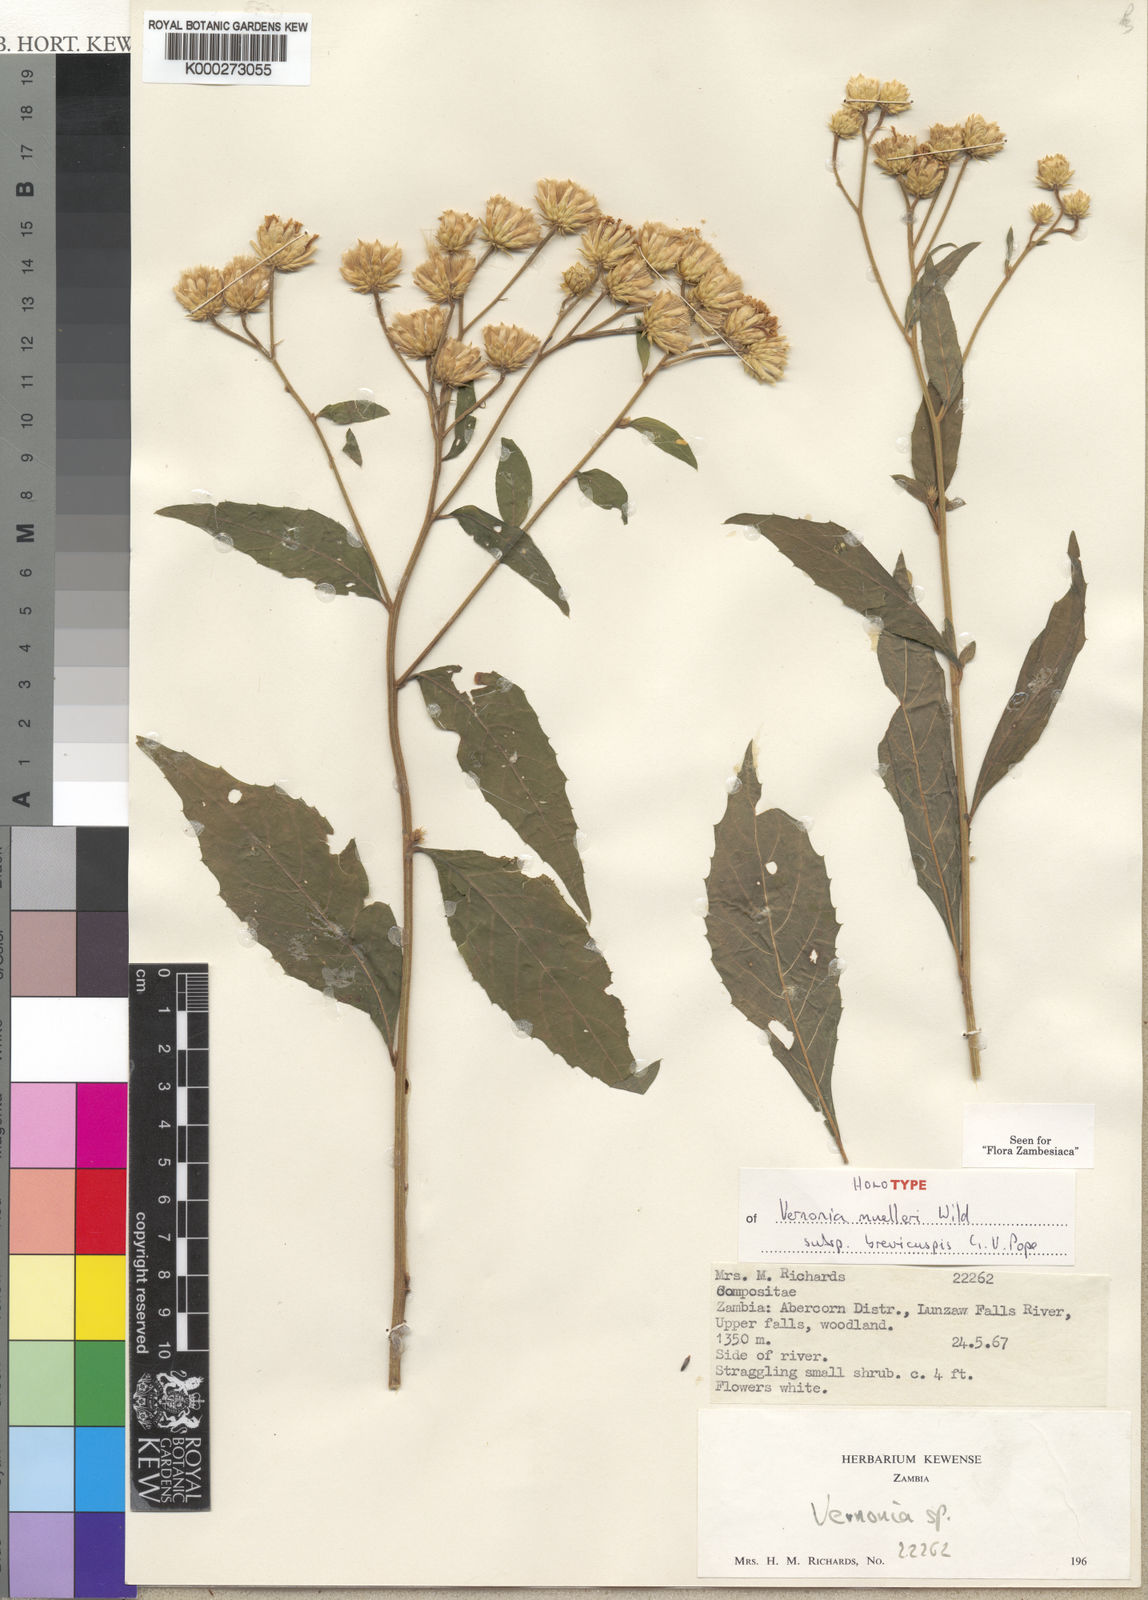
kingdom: Plantae
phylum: Tracheophyta
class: Magnoliopsida
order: Asterales
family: Asteraceae
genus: Vernonia
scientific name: Vernonia muelleri
